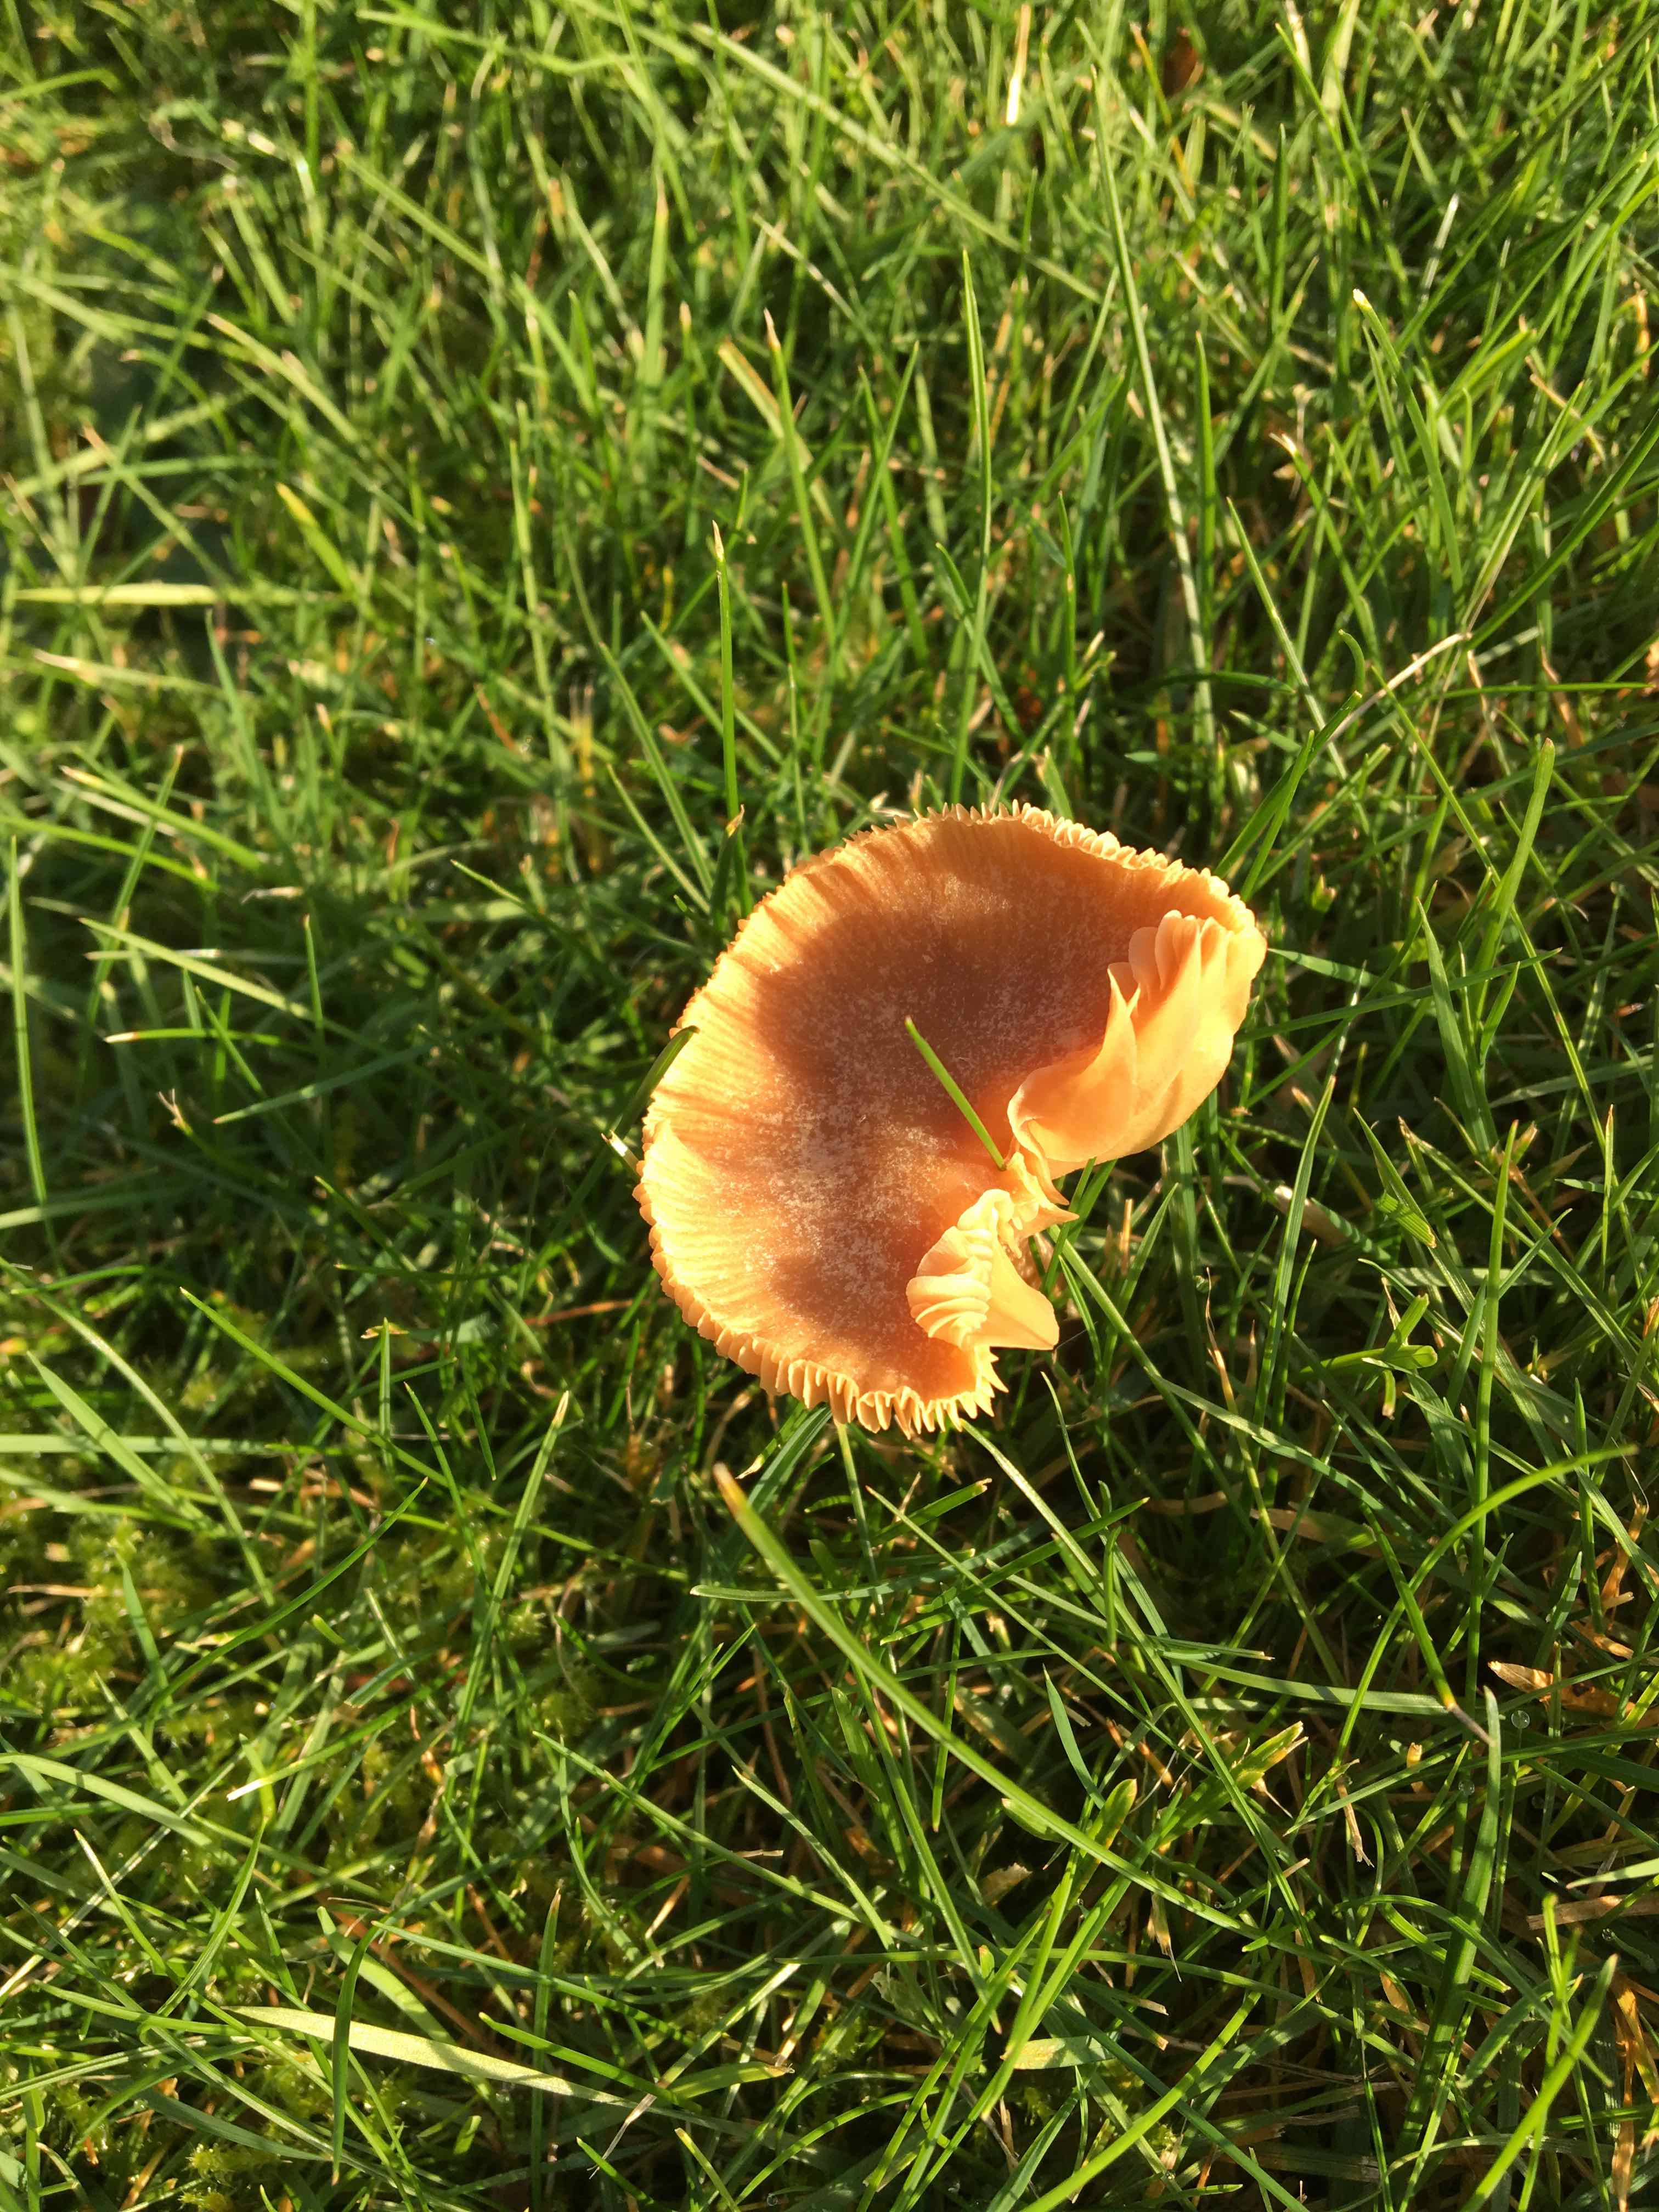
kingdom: Fungi
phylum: Basidiomycota
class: Agaricomycetes
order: Agaricales
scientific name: Agaricales
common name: champignonordenen
